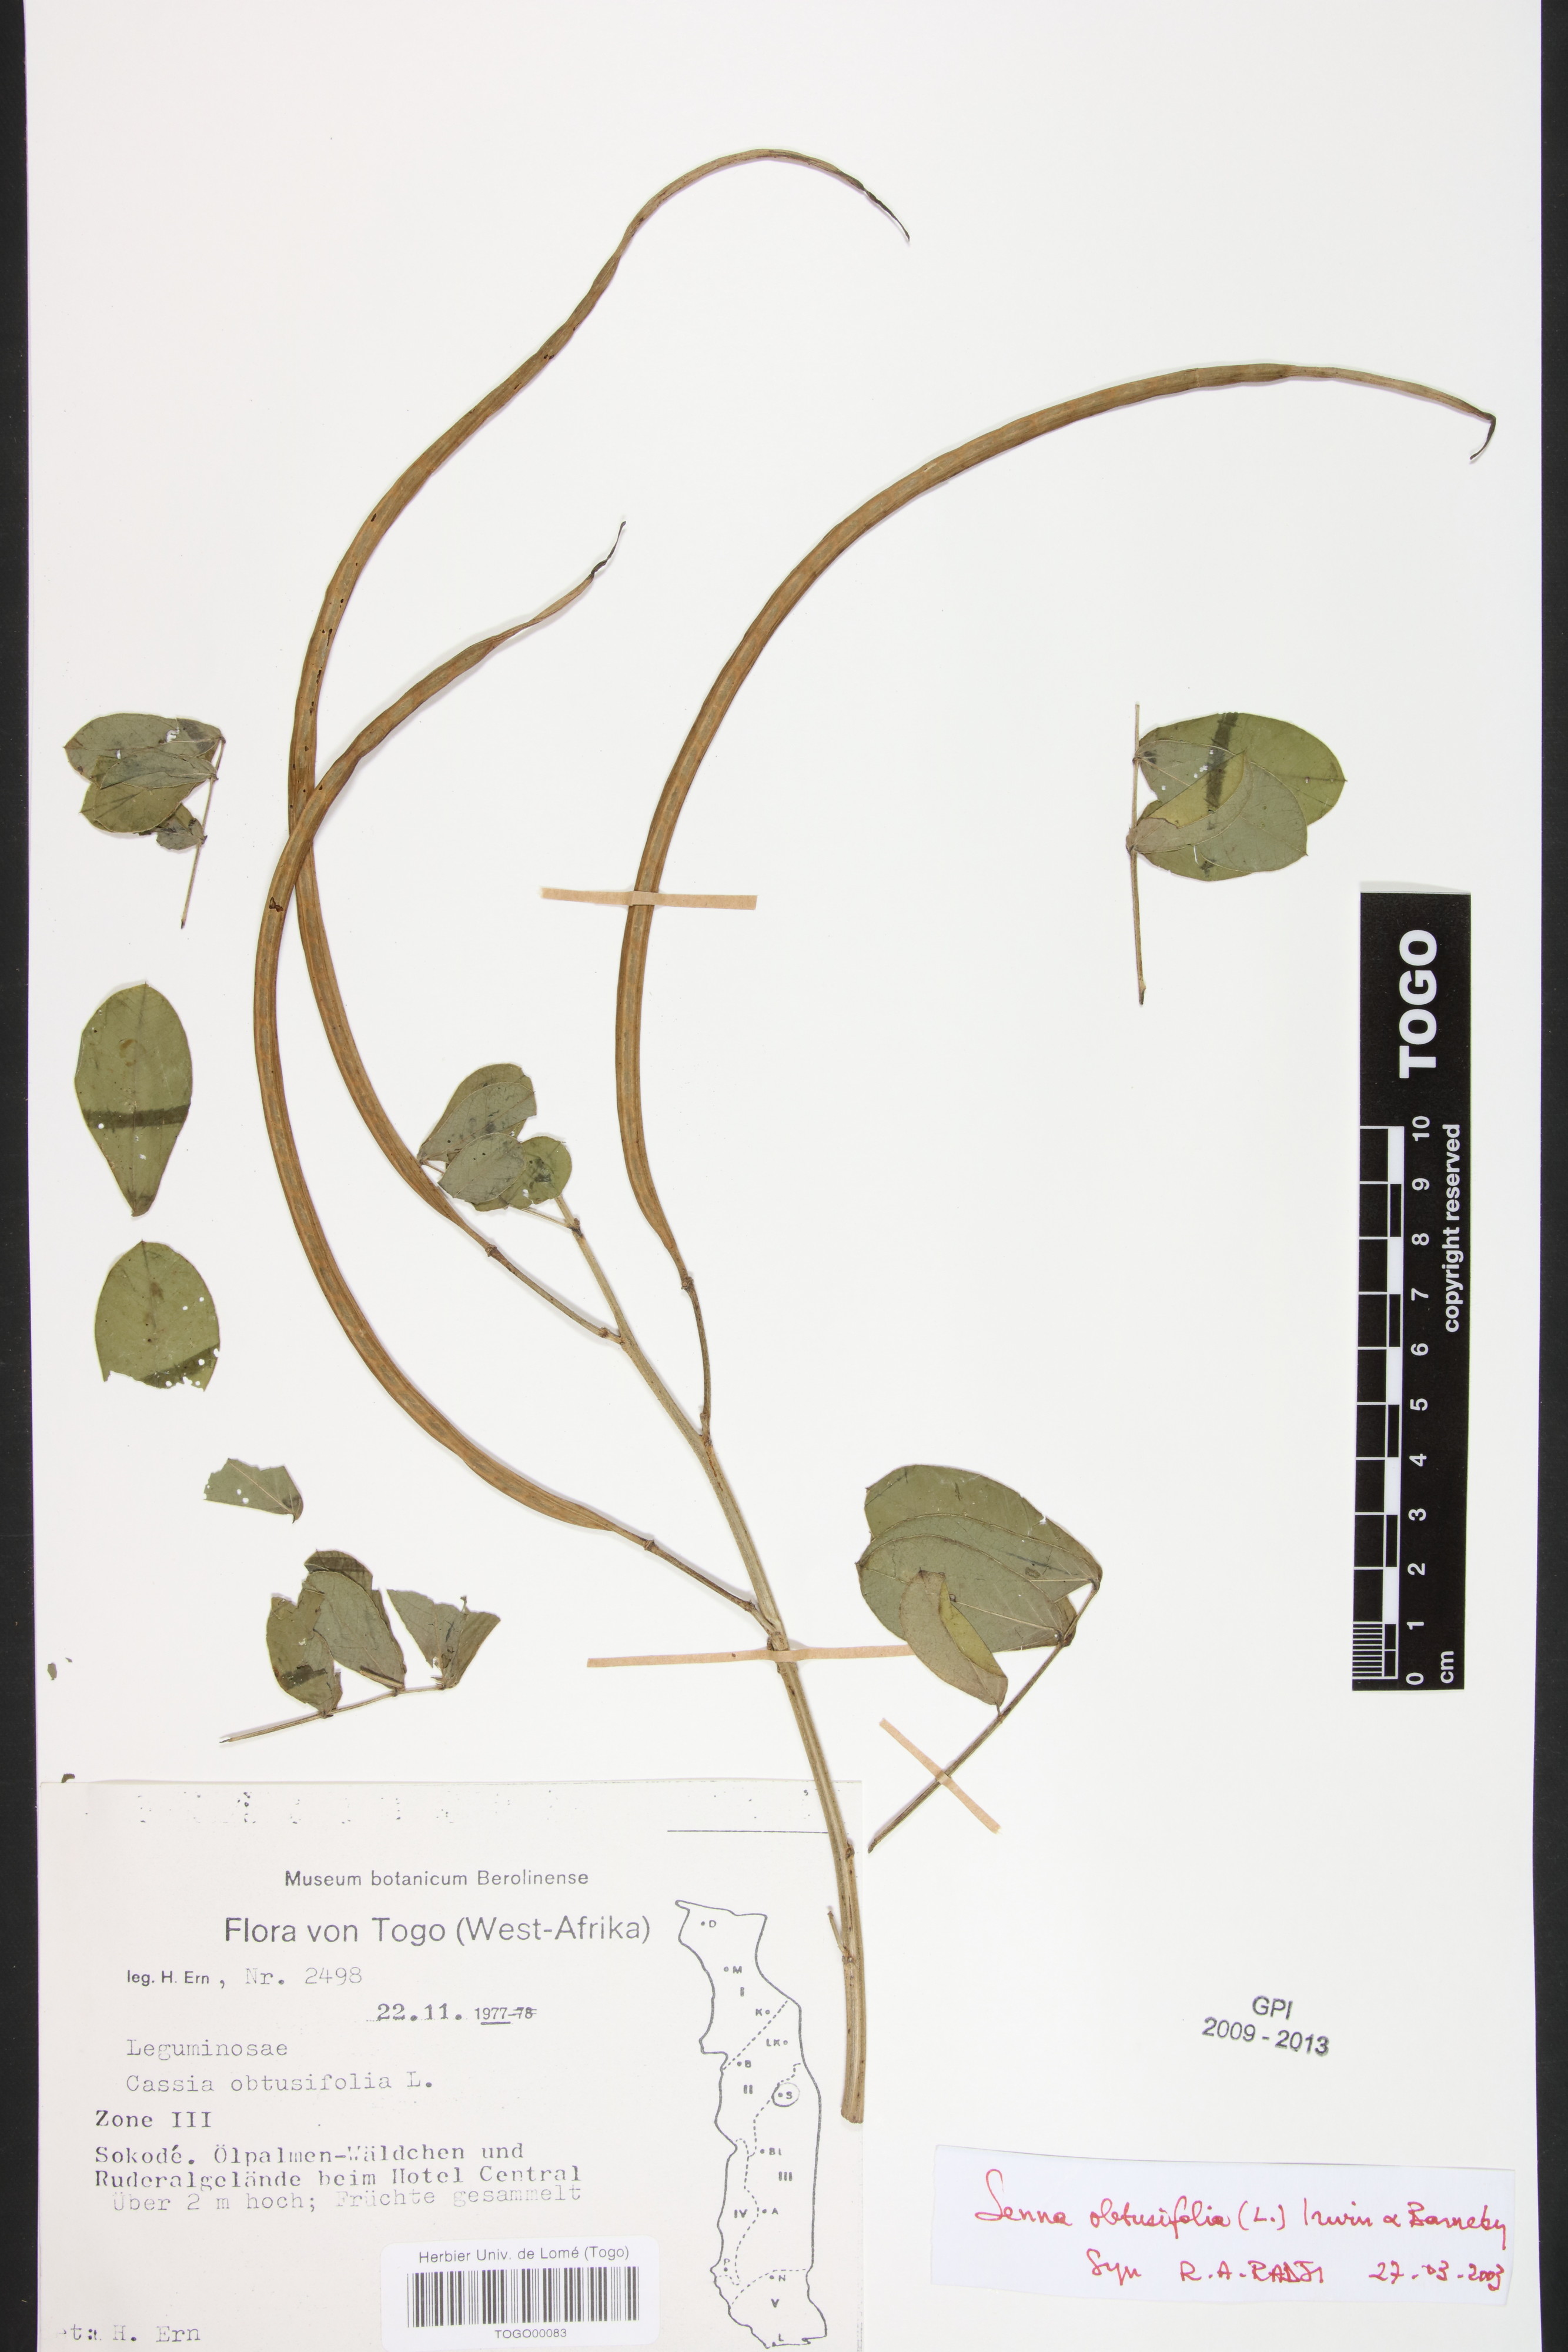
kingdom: Plantae
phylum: Tracheophyta
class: Magnoliopsida
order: Fabales
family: Fabaceae
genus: Senna
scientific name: Senna obtusifolia
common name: Java-bean
